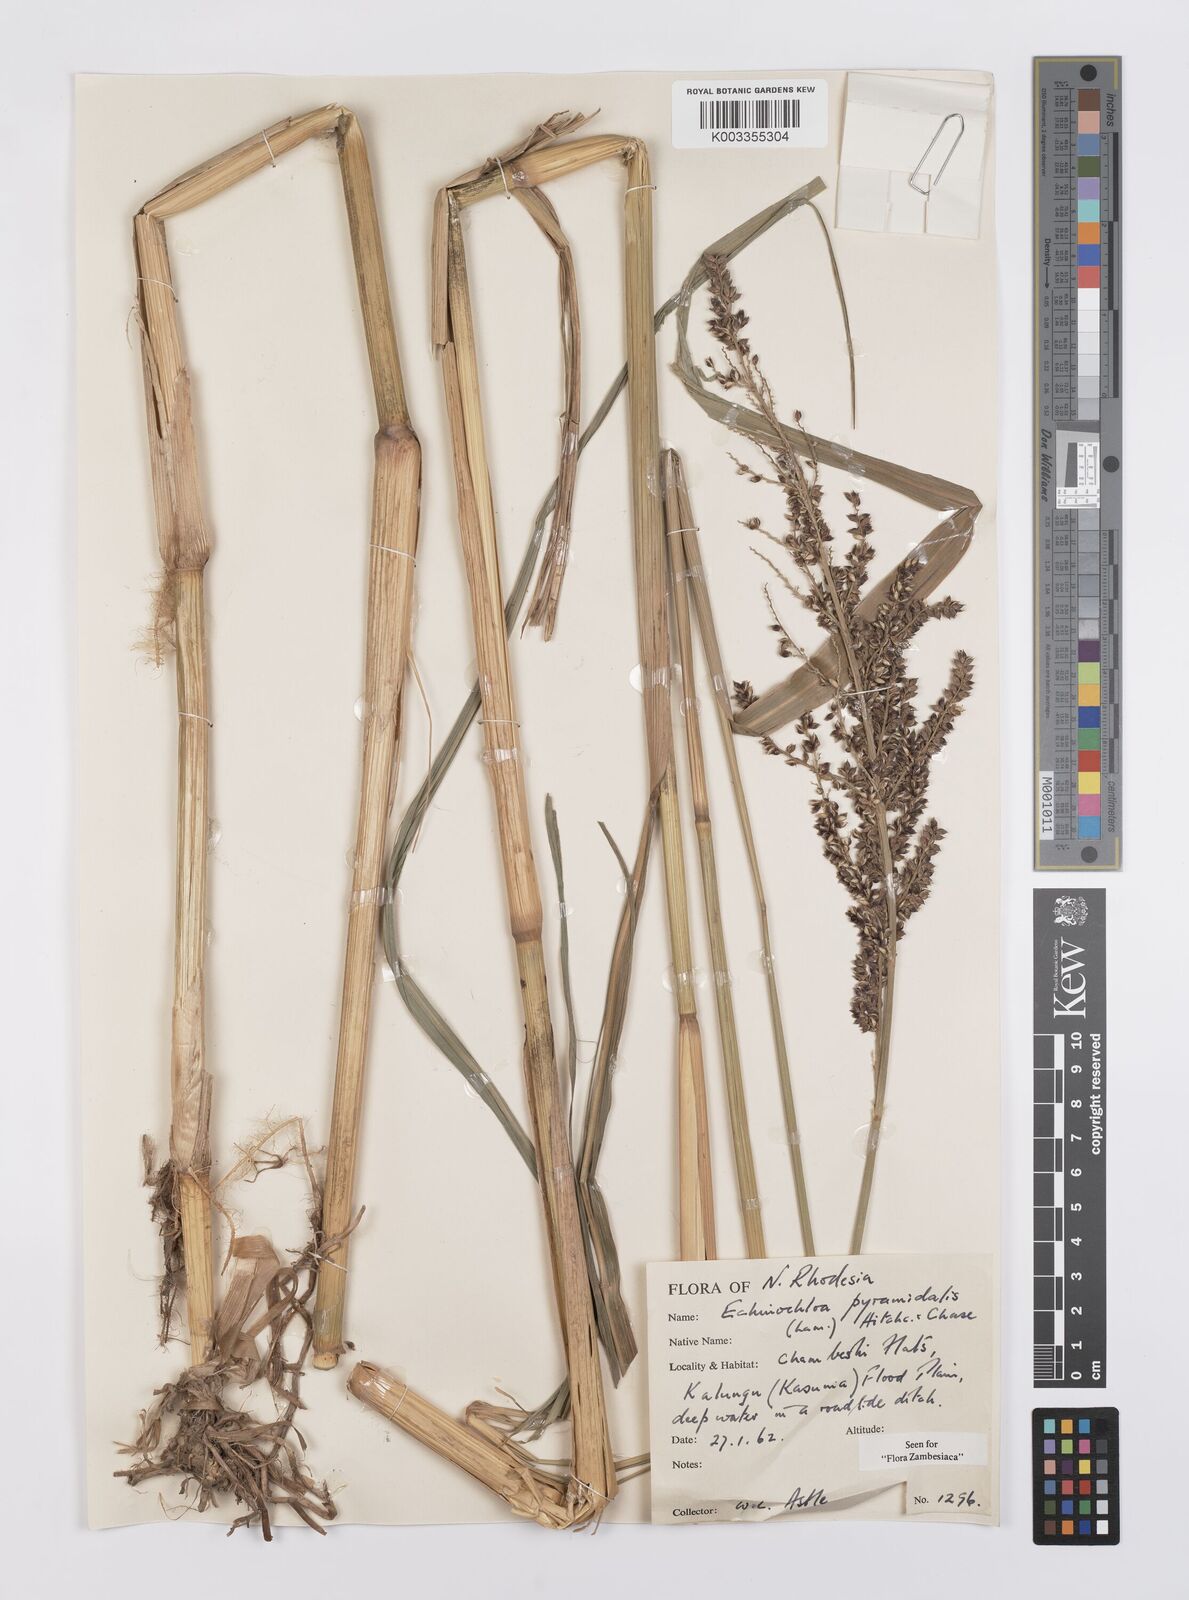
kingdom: Plantae
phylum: Tracheophyta
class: Liliopsida
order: Poales
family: Poaceae
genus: Echinochloa
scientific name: Echinochloa pyramidalis
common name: Antelope grass
